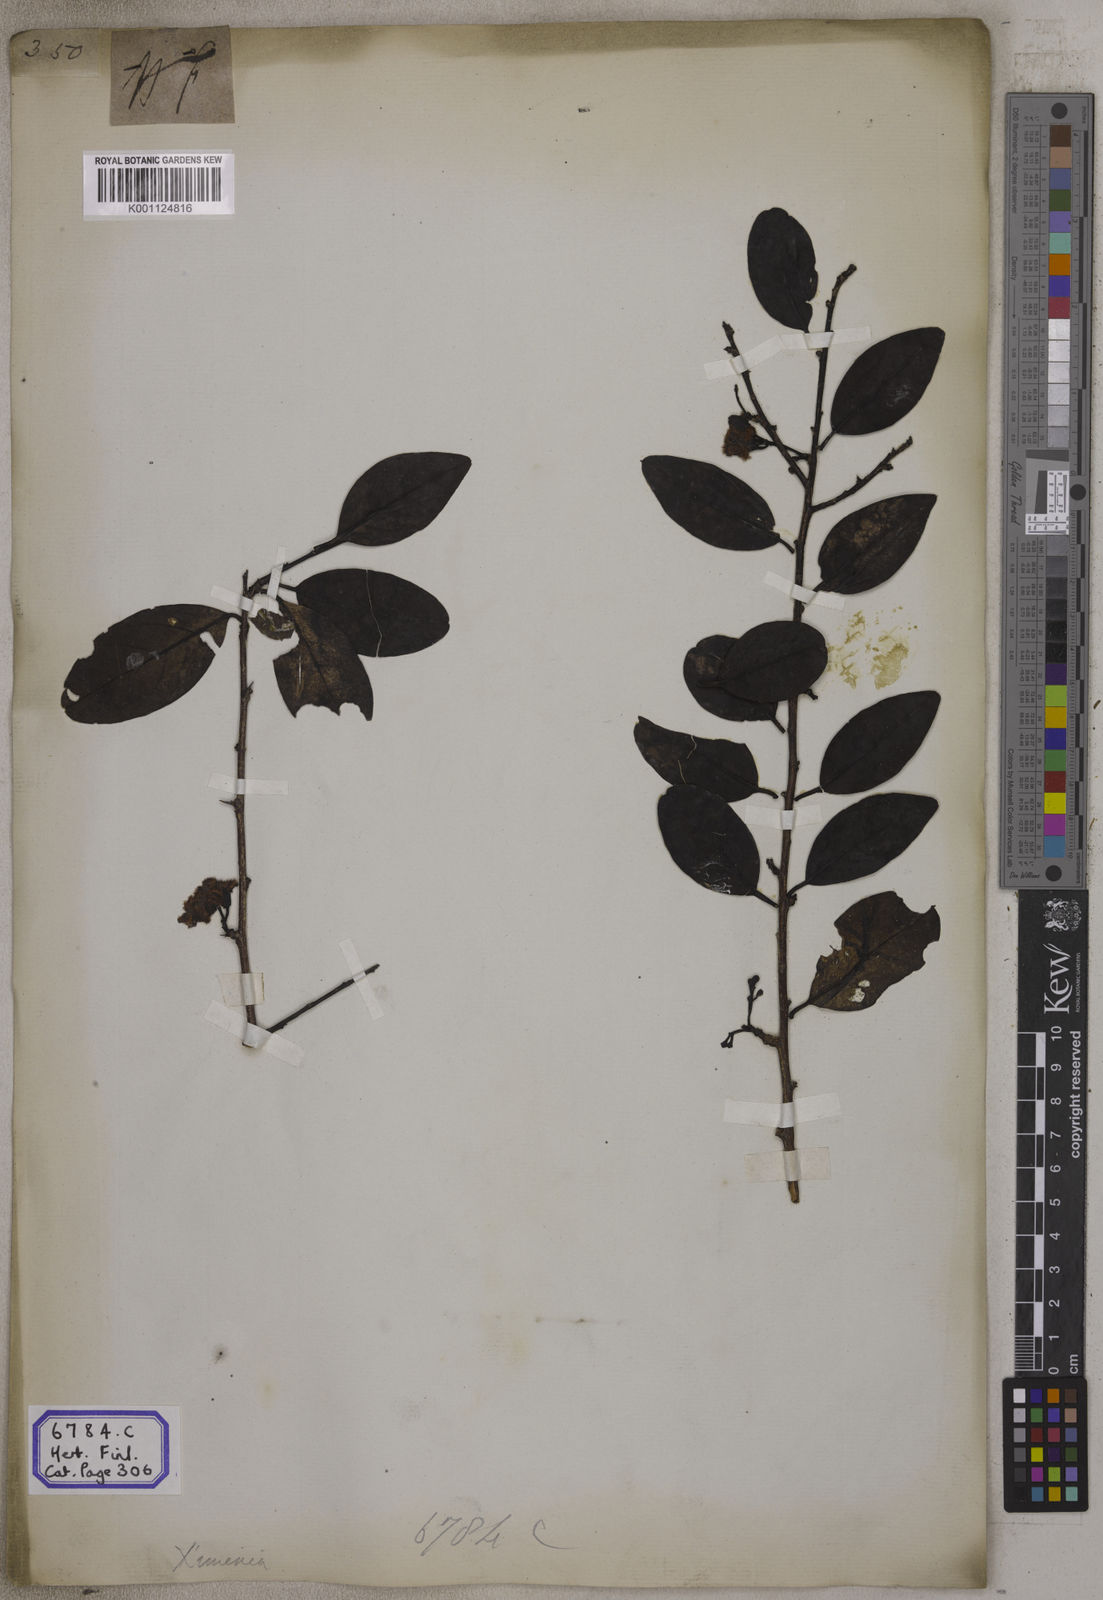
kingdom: Plantae
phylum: Tracheophyta
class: Magnoliopsida
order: Santalales
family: Ximeniaceae
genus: Ximenia
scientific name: Ximenia americana
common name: Tallowwood
